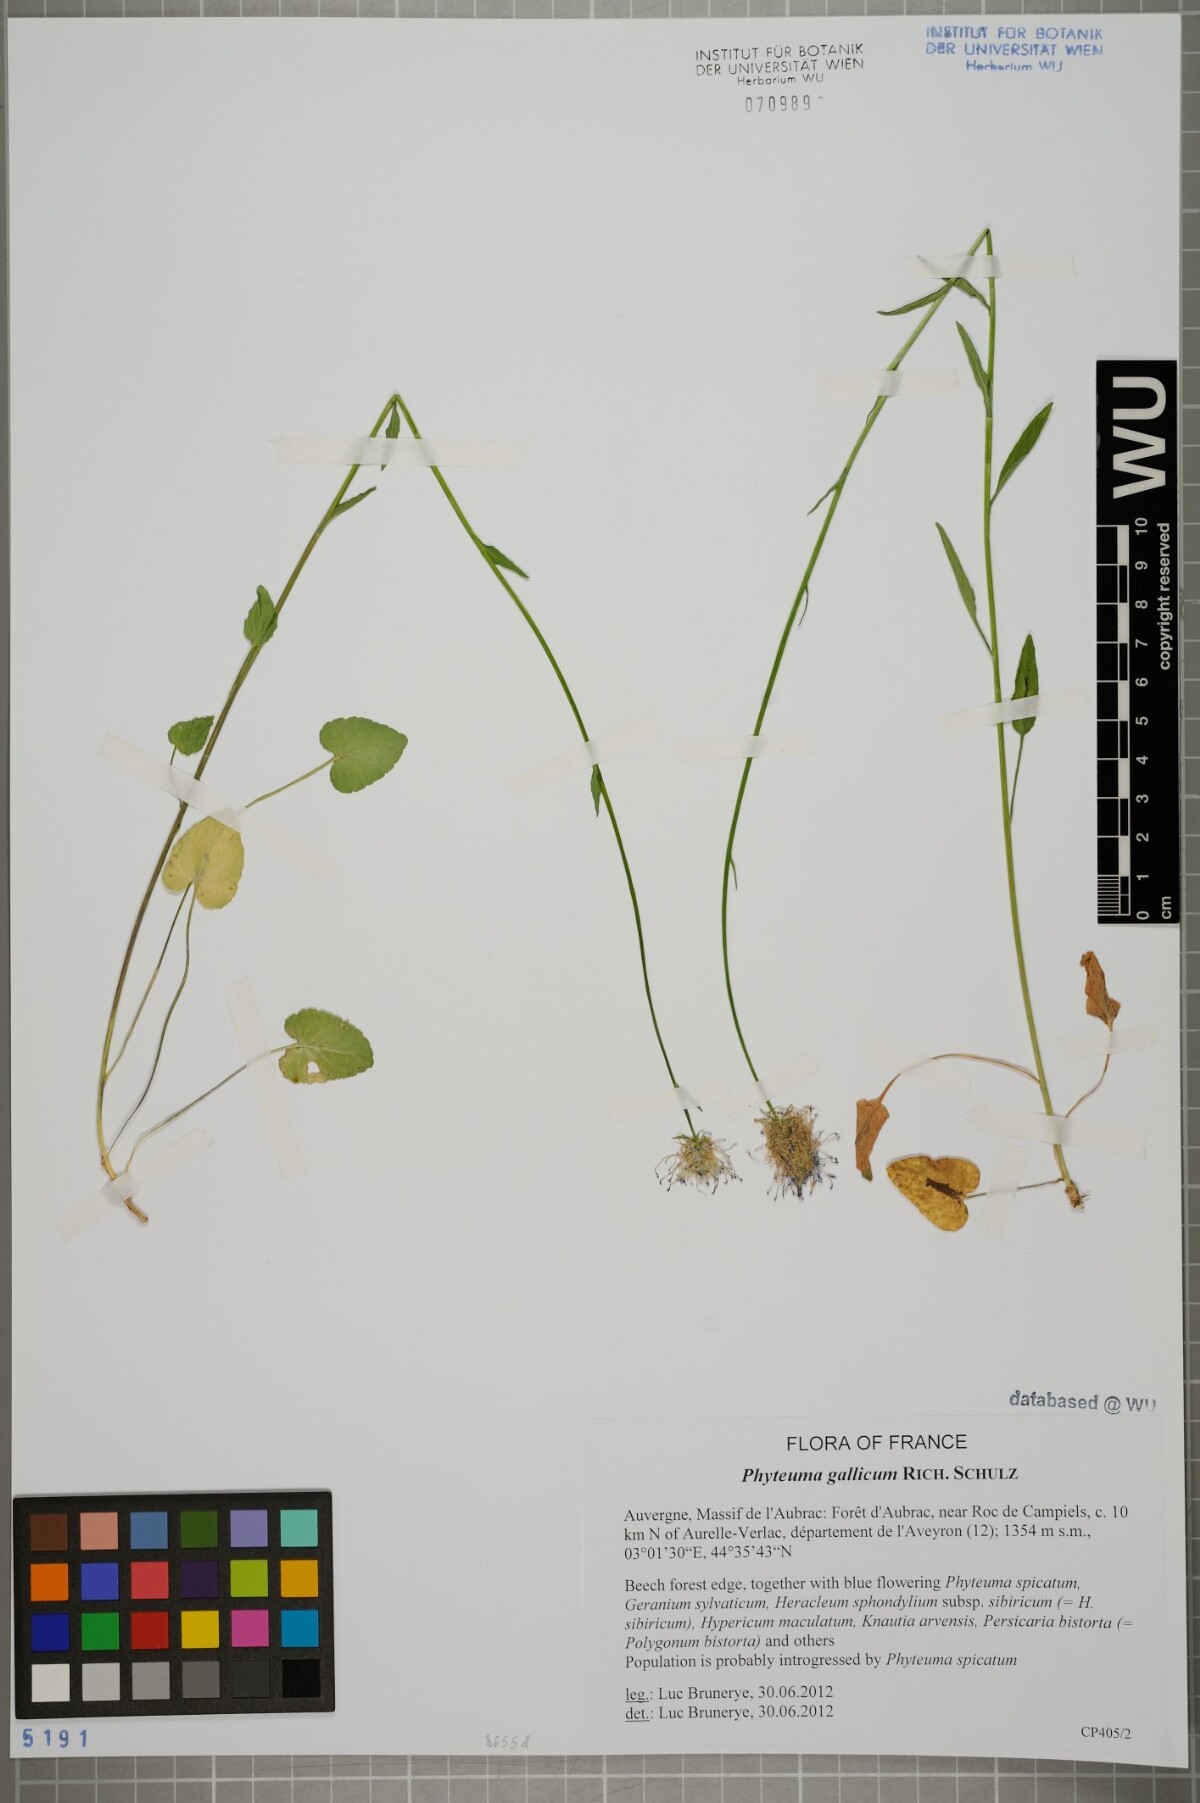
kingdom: Plantae
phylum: Tracheophyta
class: Magnoliopsida
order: Asterales
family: Campanulaceae
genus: Phyteuma
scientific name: Phyteuma gallicum
